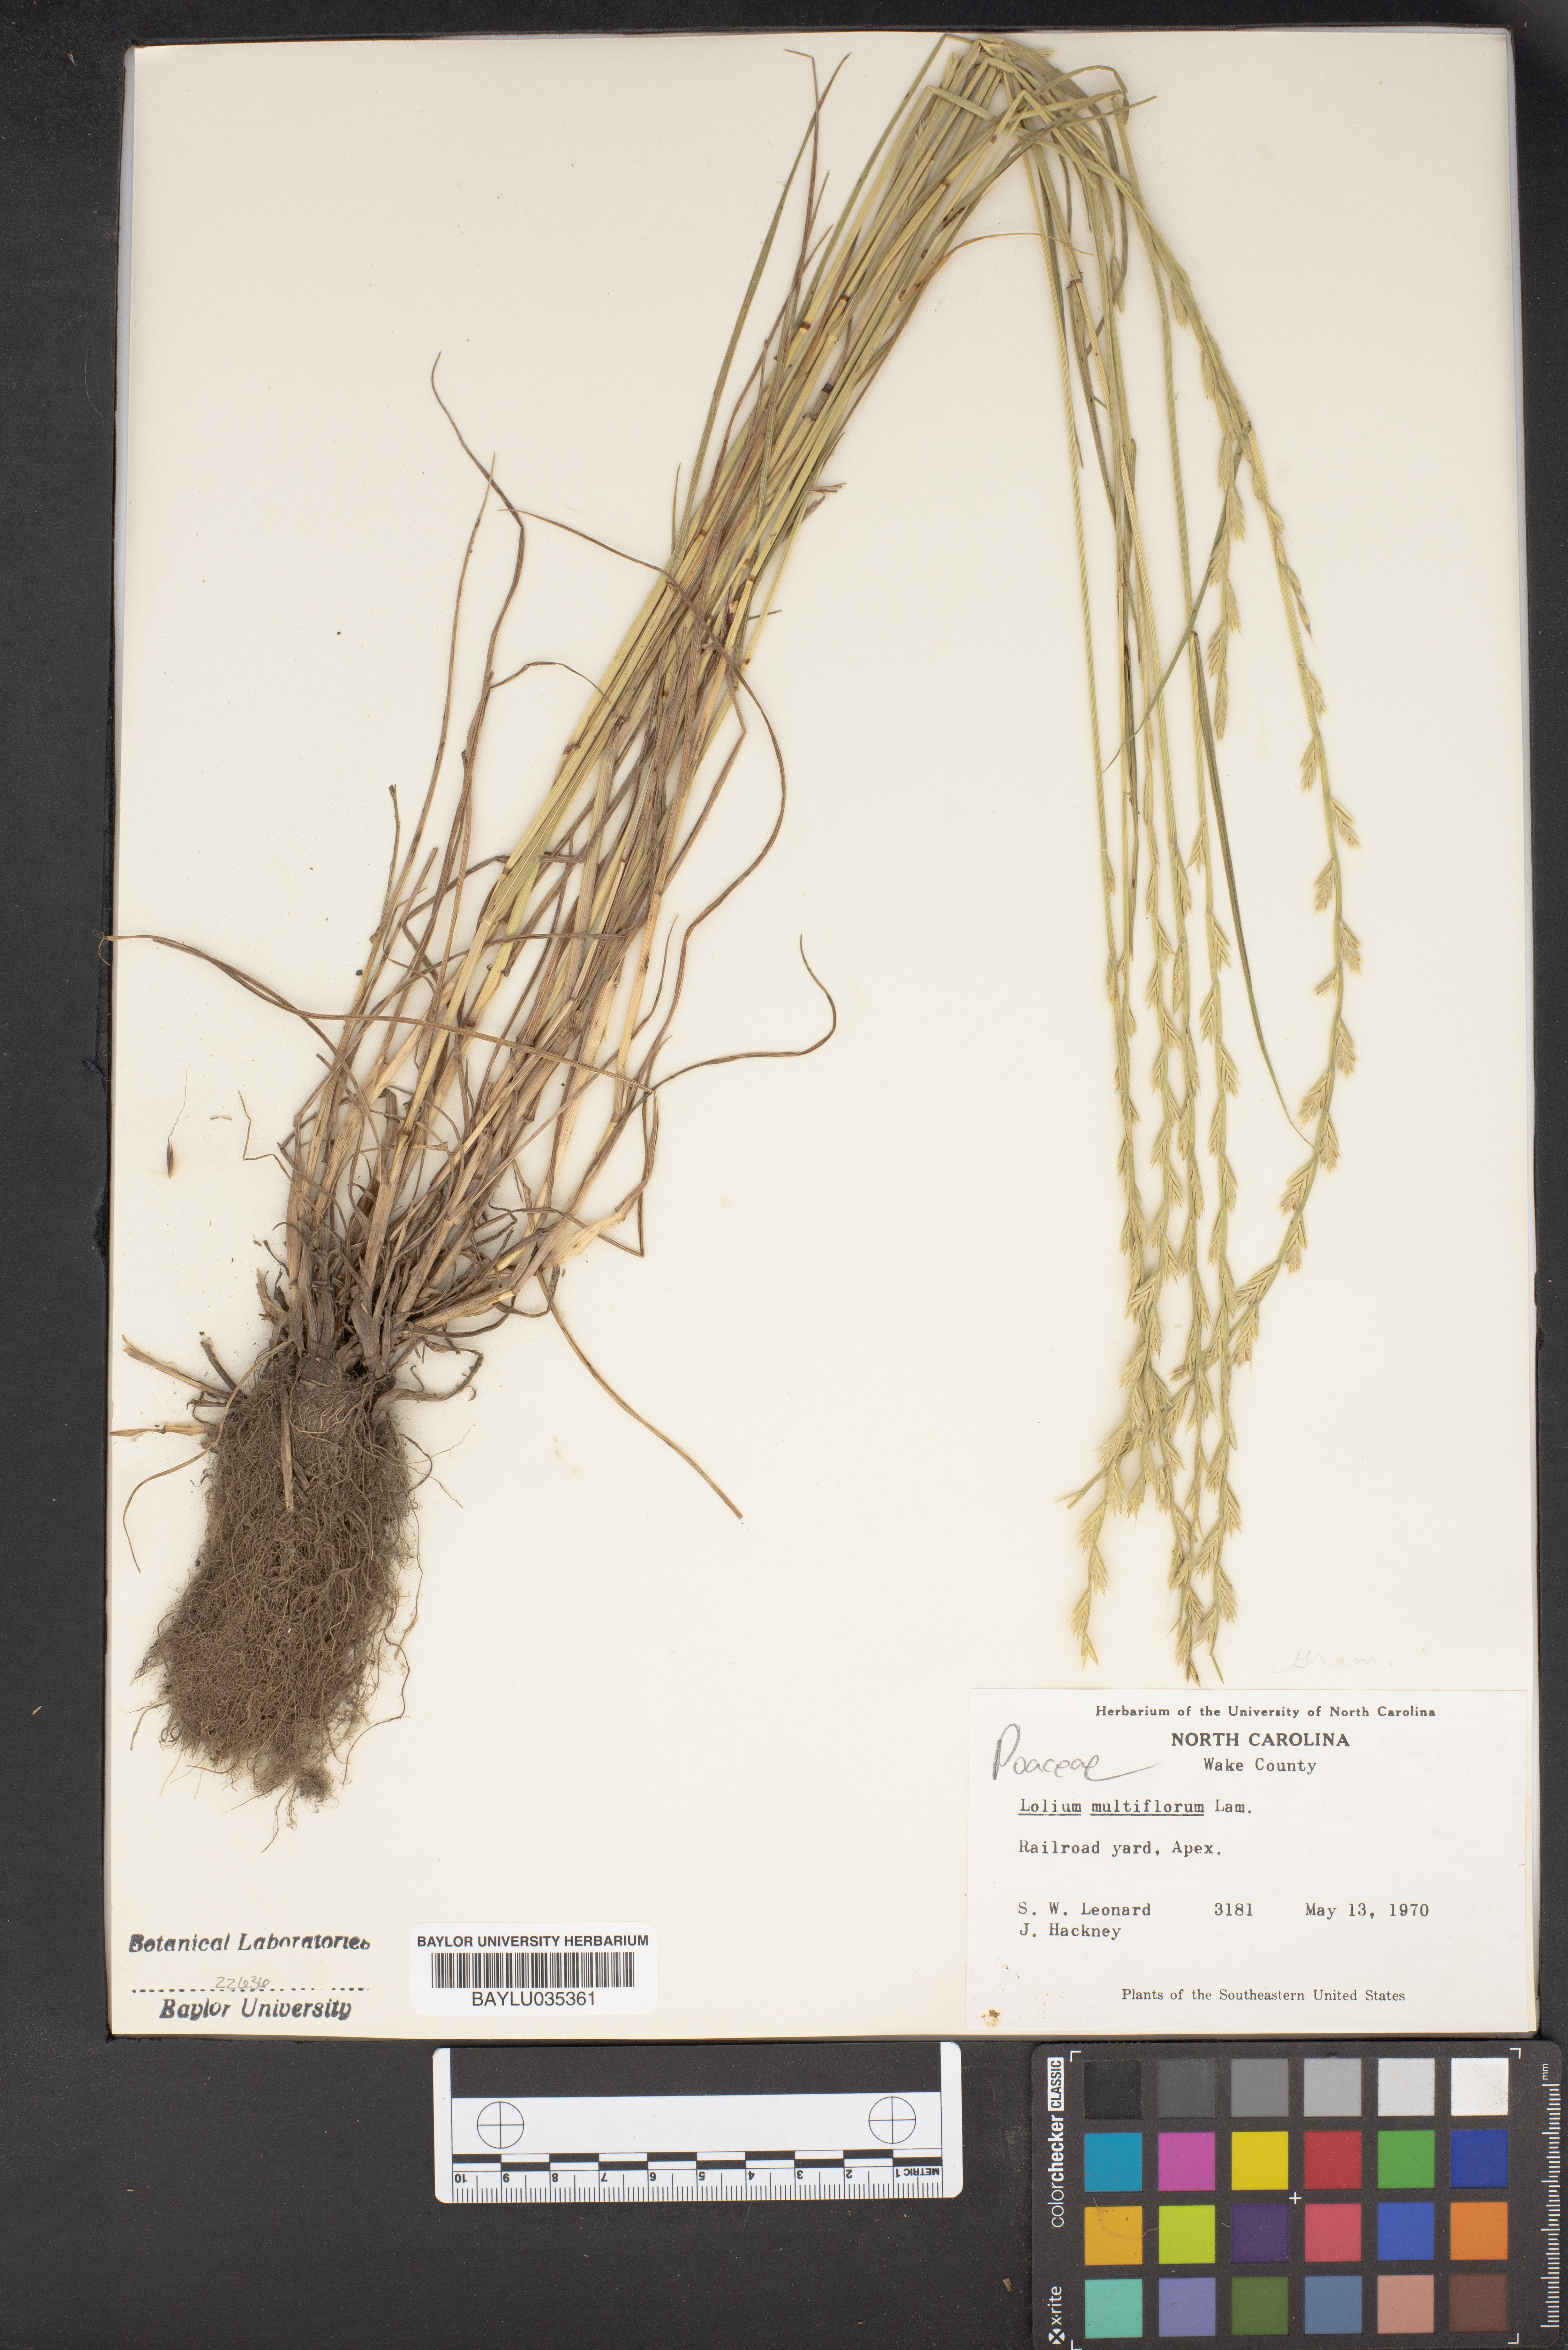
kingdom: Plantae
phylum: Tracheophyta
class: Liliopsida
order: Poales
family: Poaceae
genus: Lolium
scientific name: Lolium multiflorum
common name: Annual ryegrass
